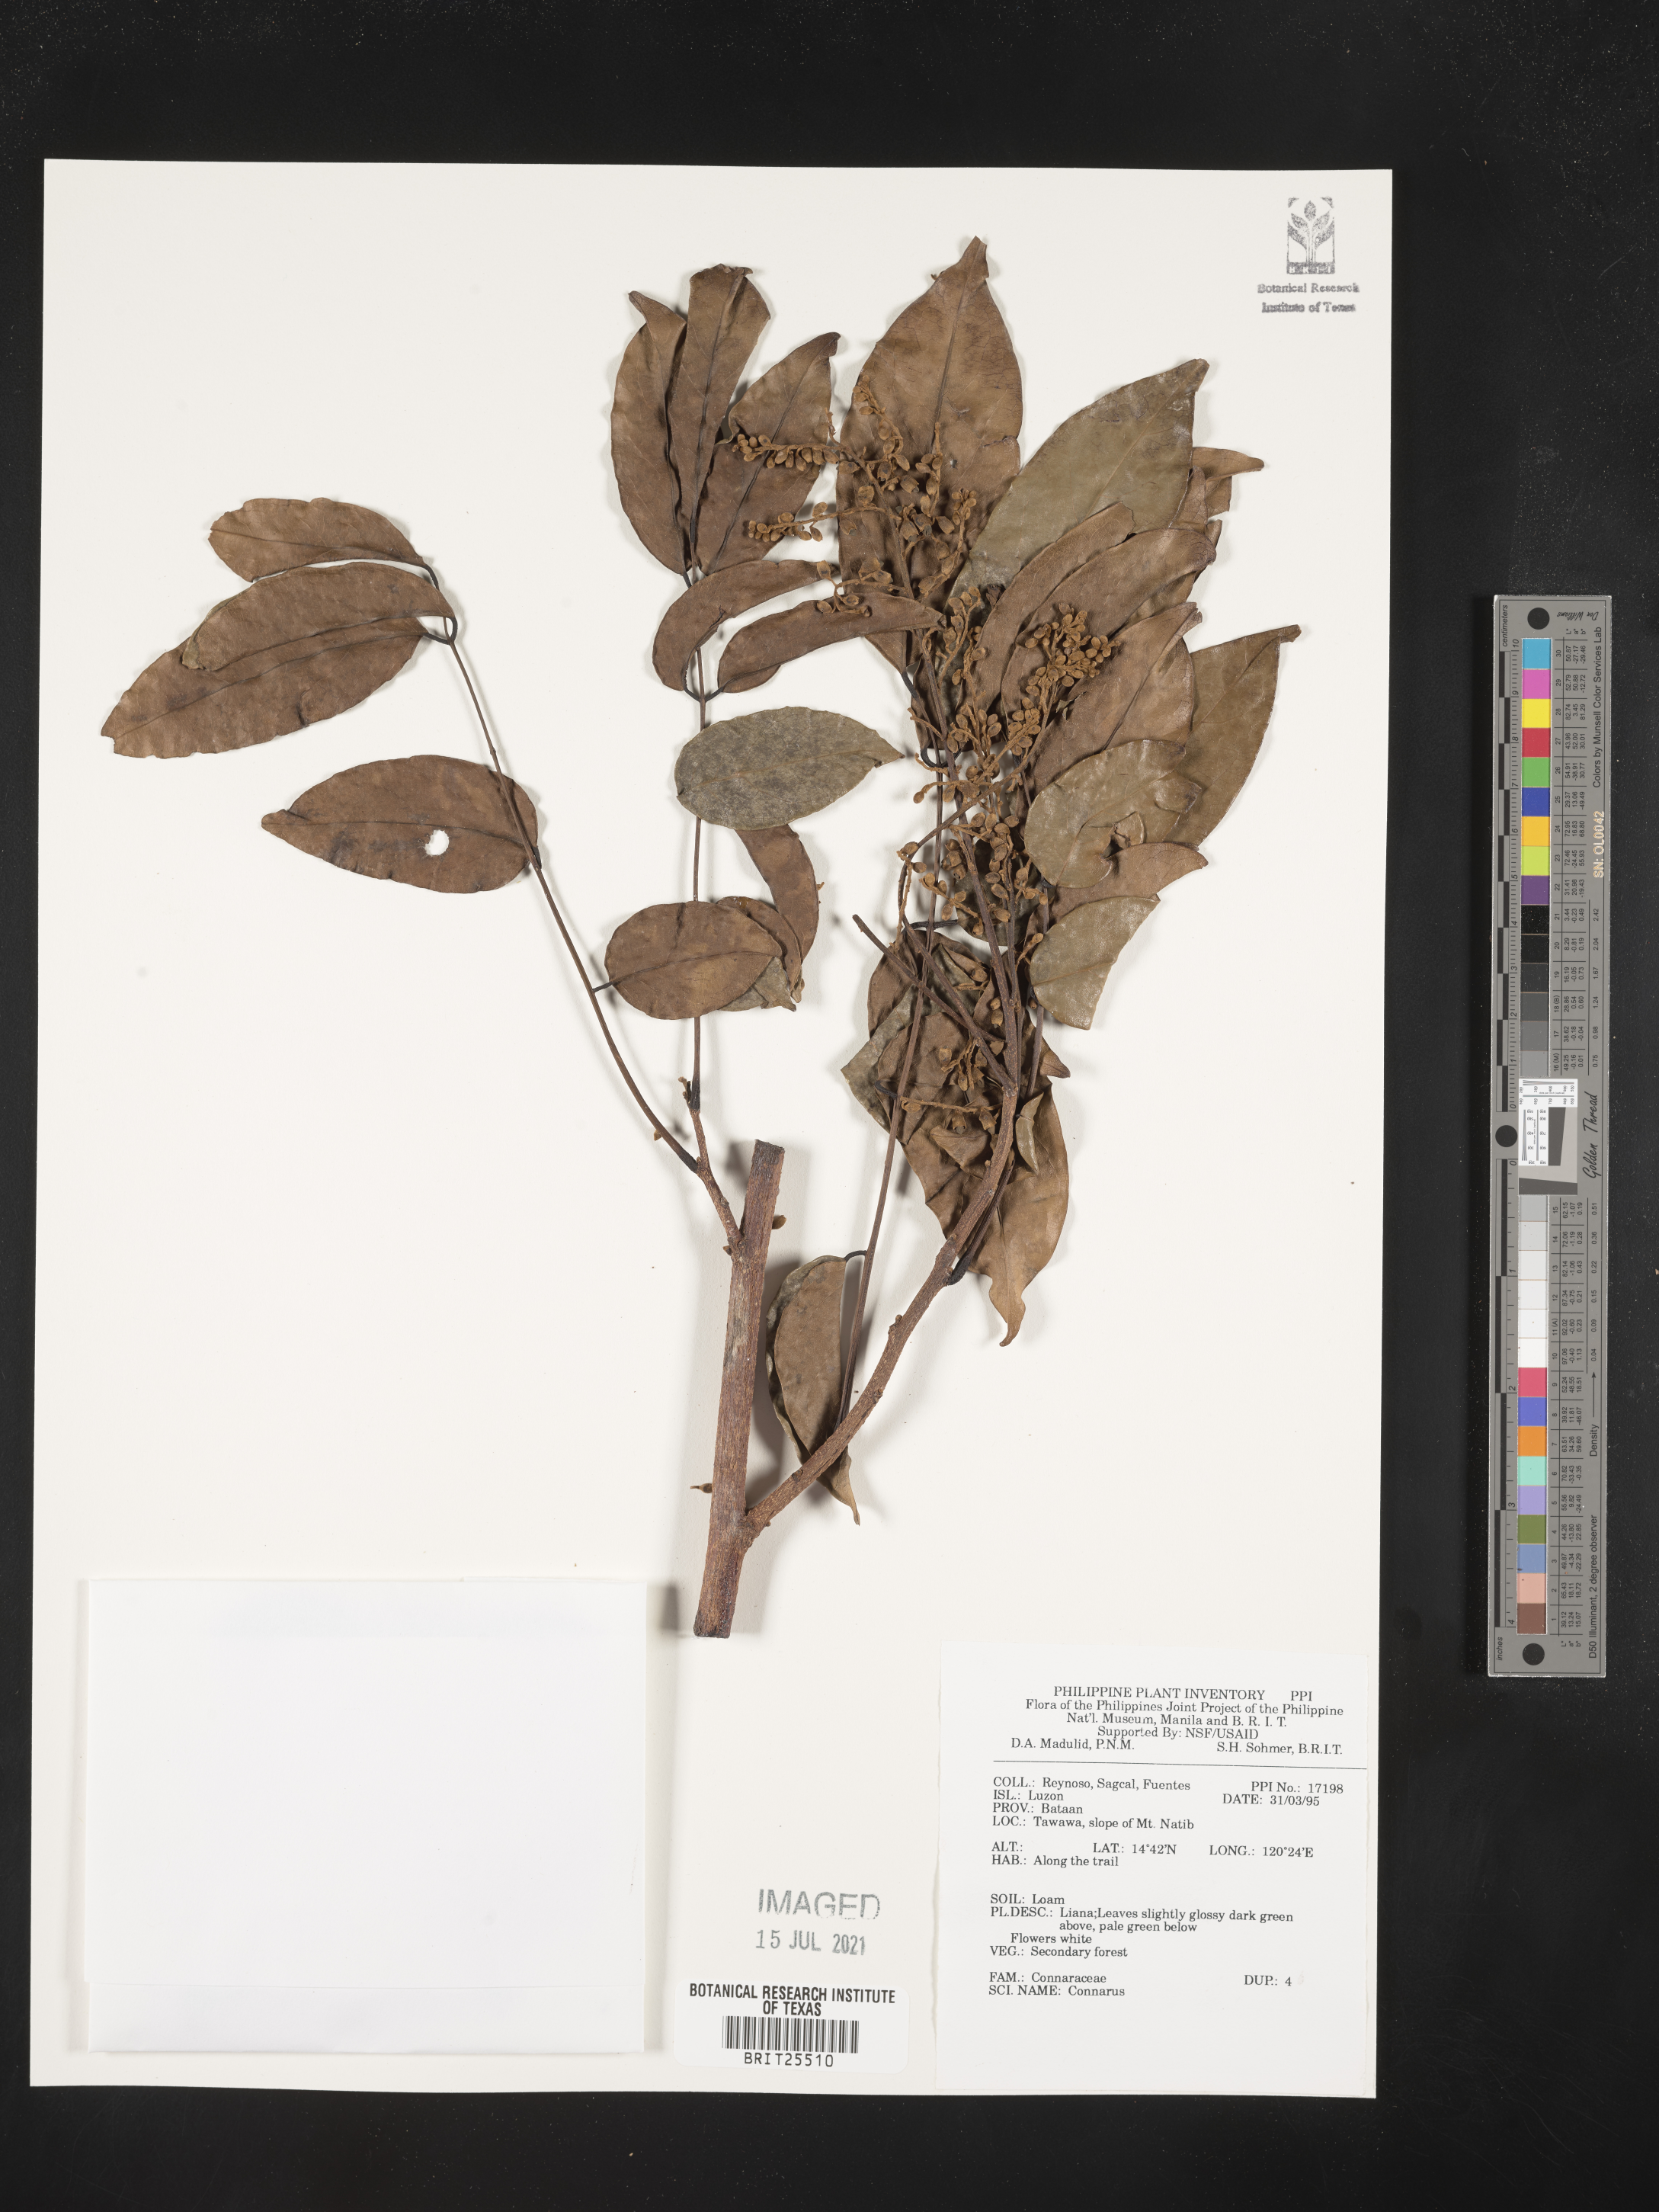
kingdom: Plantae
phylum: Tracheophyta
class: Magnoliopsida
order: Oxalidales
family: Connaraceae
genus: Connarus
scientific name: Connarus
